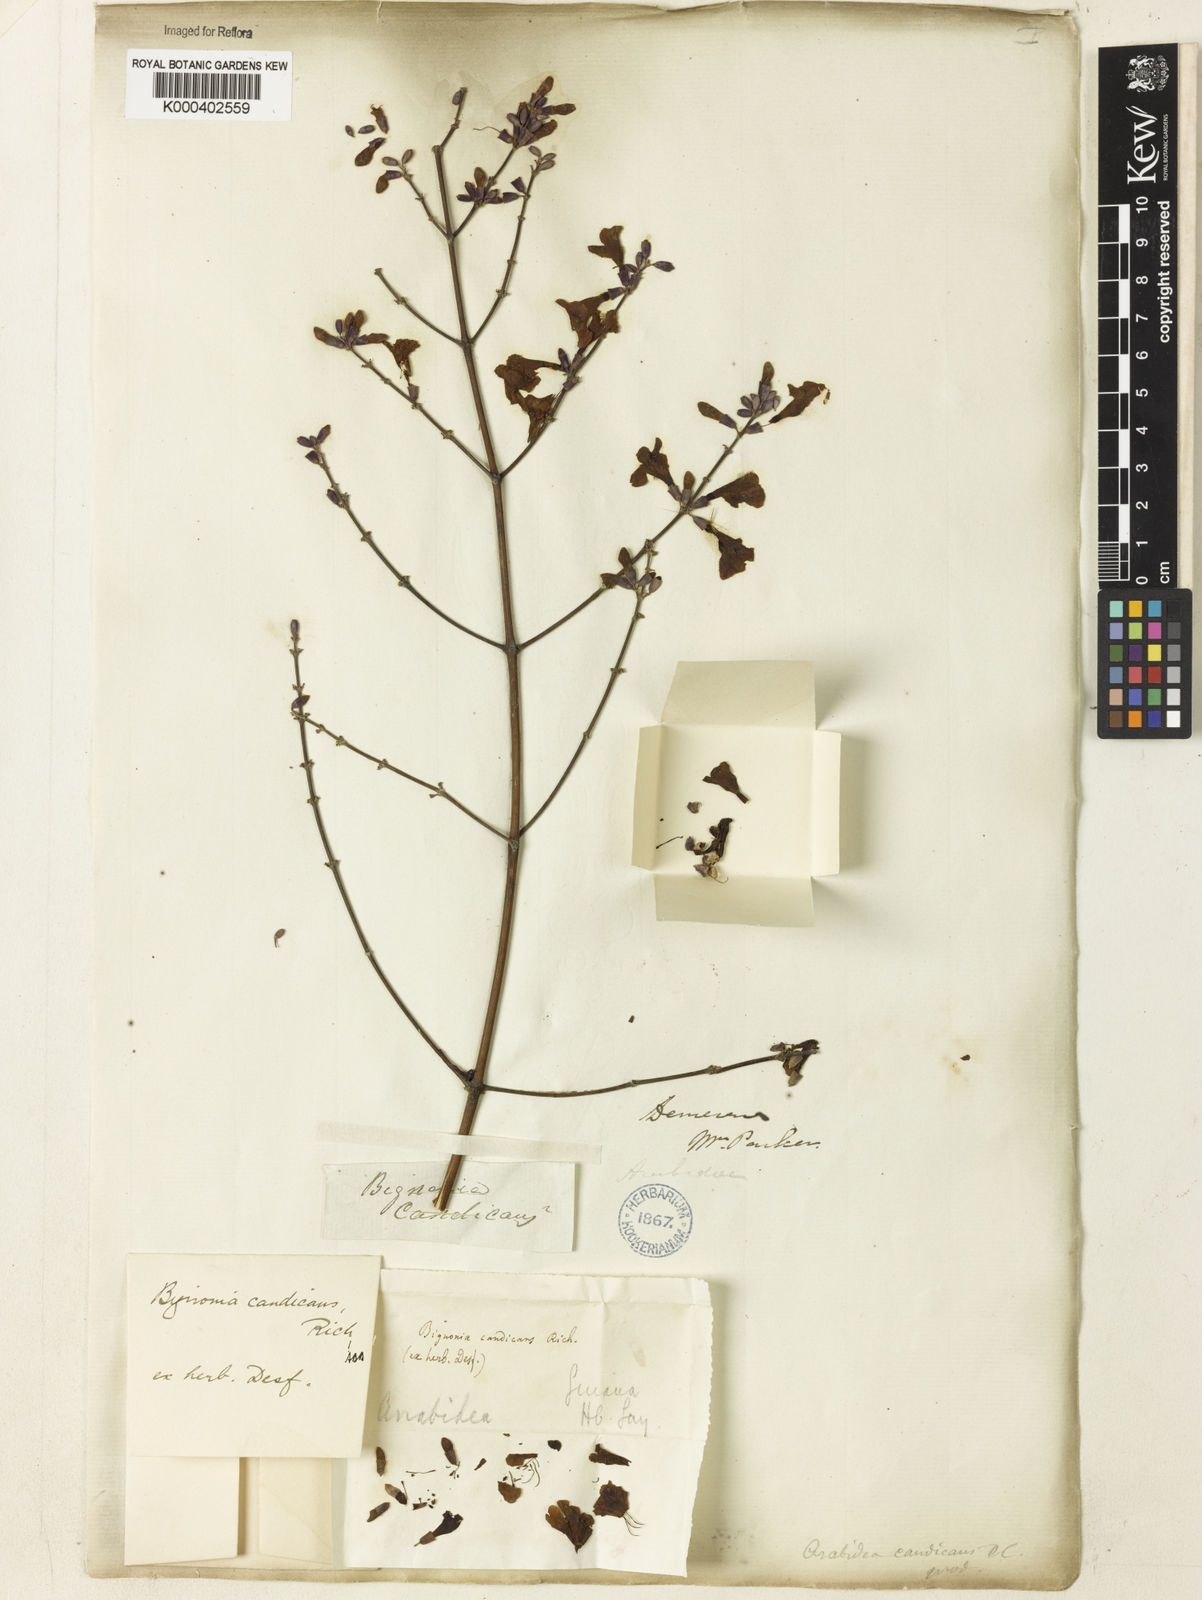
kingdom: Plantae
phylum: Tracheophyta
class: Magnoliopsida
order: Lamiales
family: Bignoniaceae
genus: Fridericia
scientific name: Fridericia candicans
